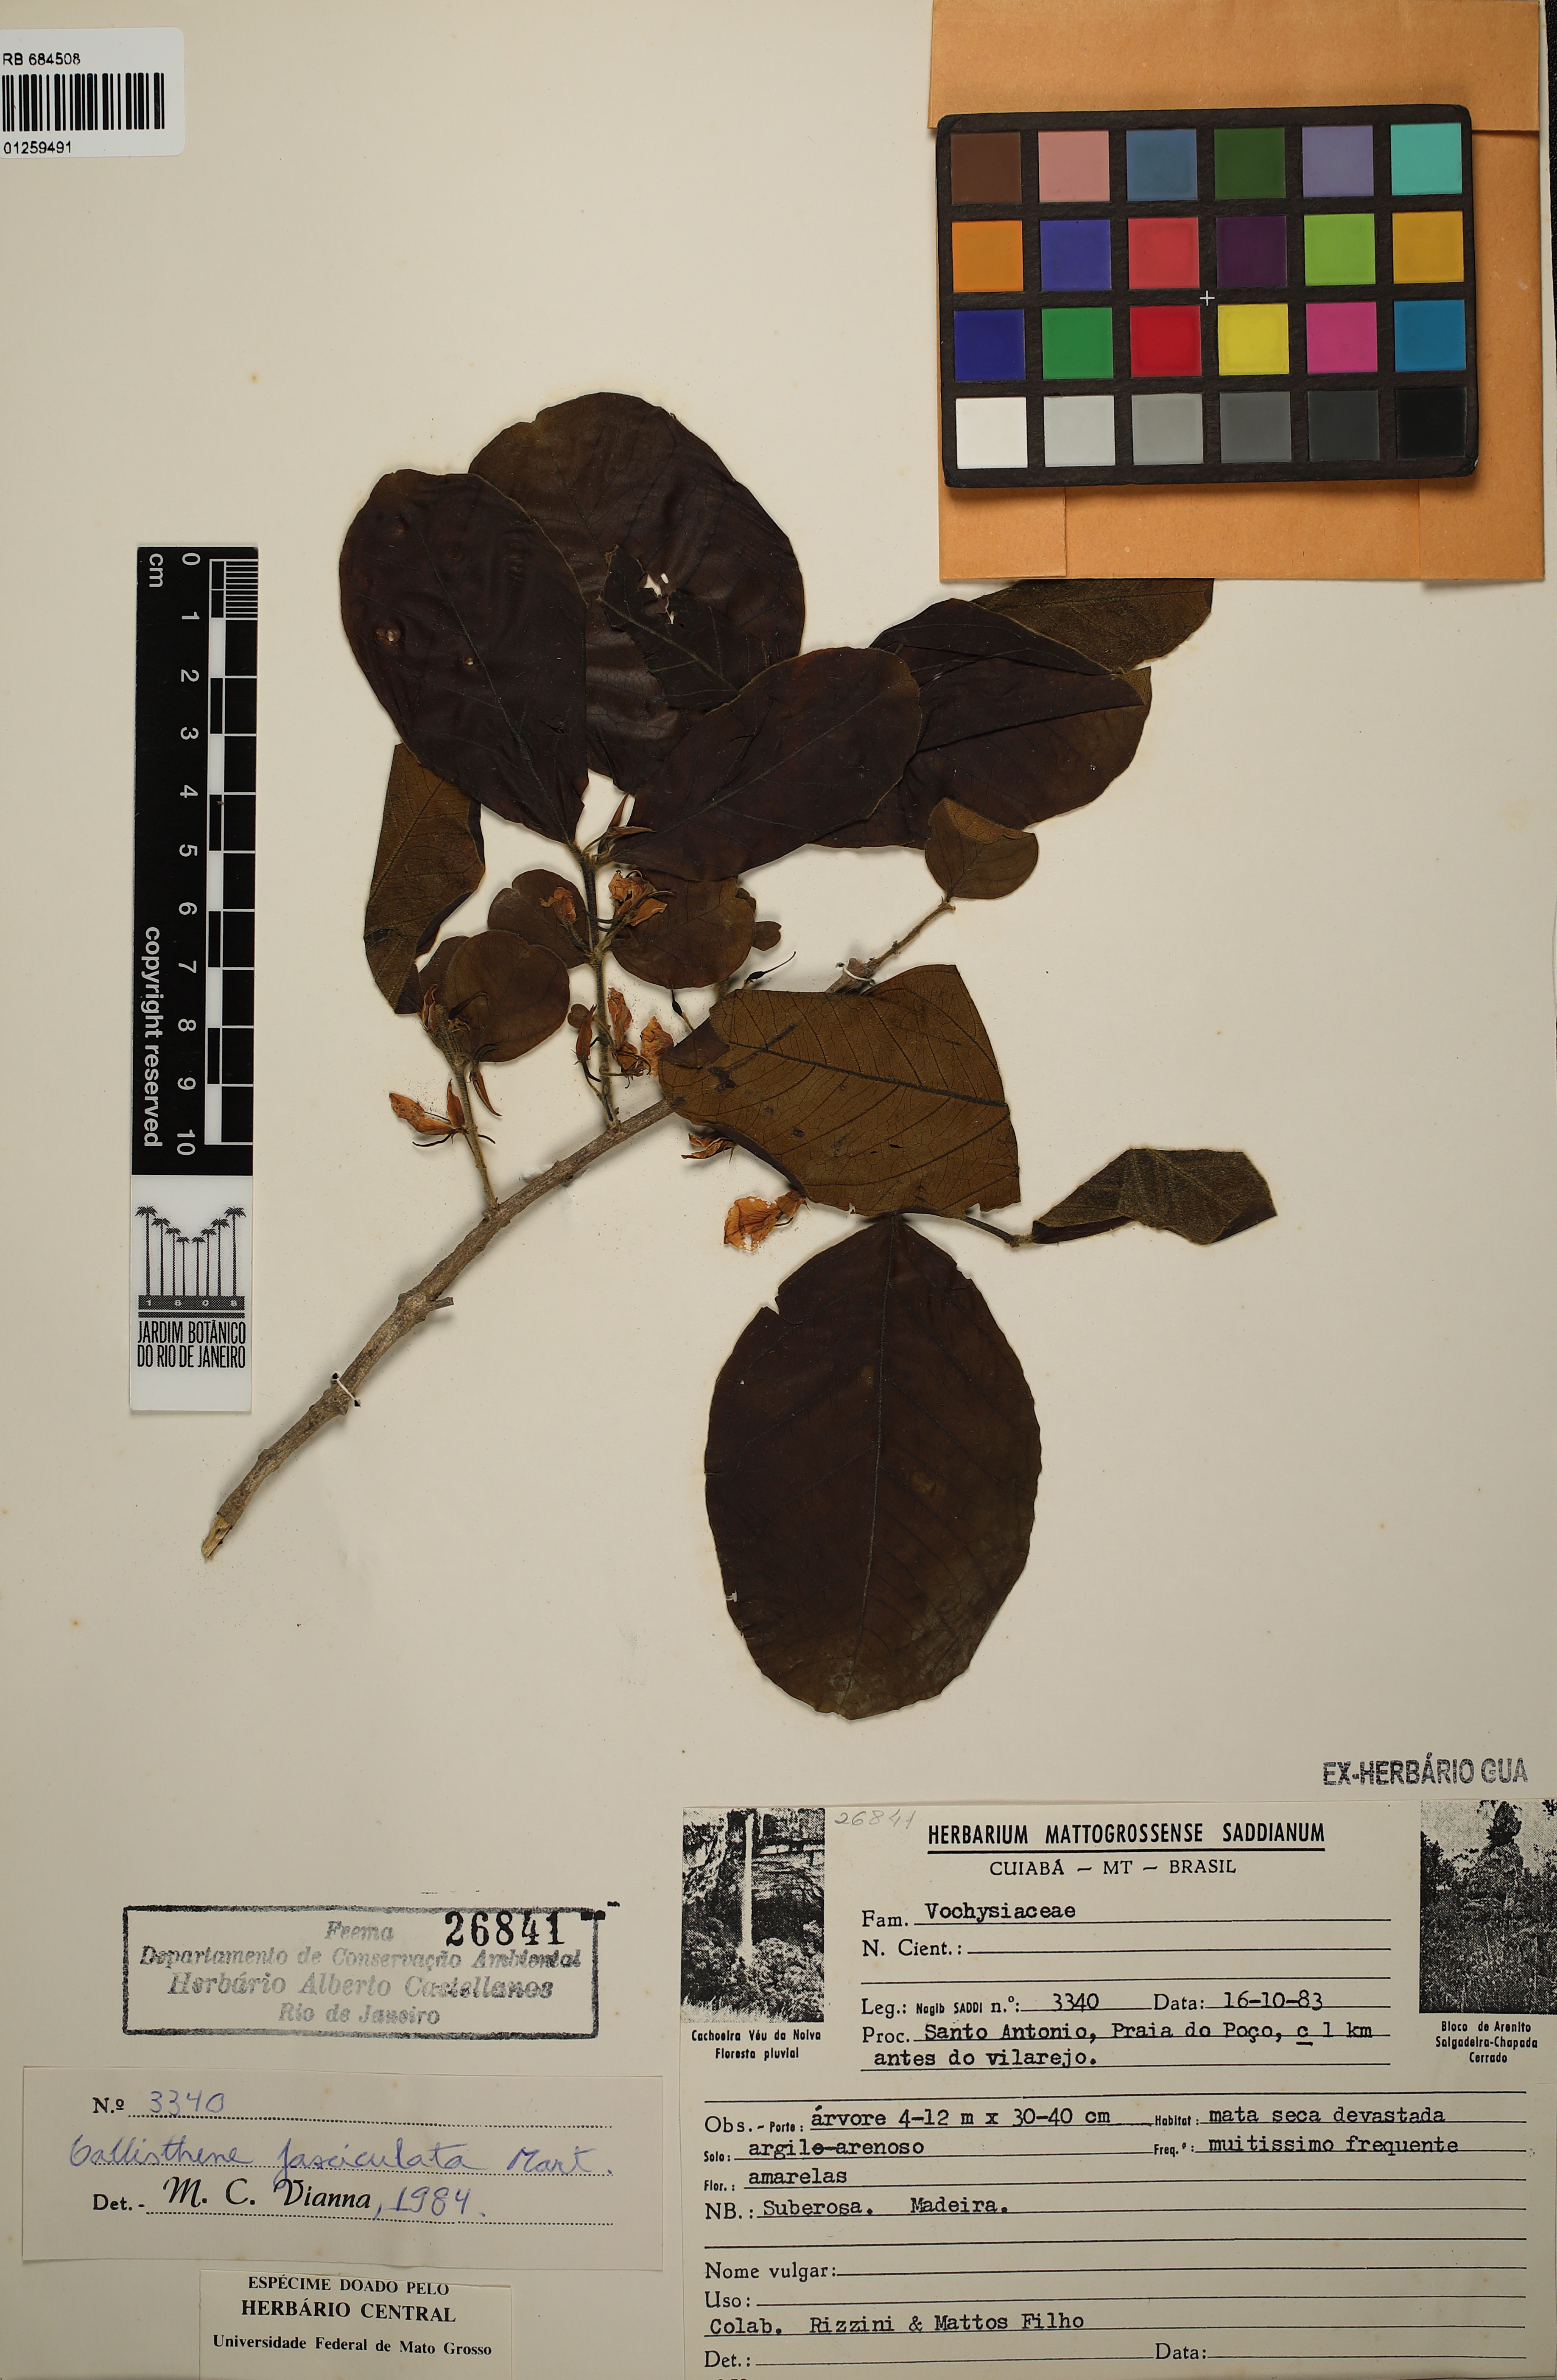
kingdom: Plantae
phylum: Tracheophyta
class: Magnoliopsida
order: Myrtales
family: Vochysiaceae
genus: Callisthene
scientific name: Callisthene fasciculata
